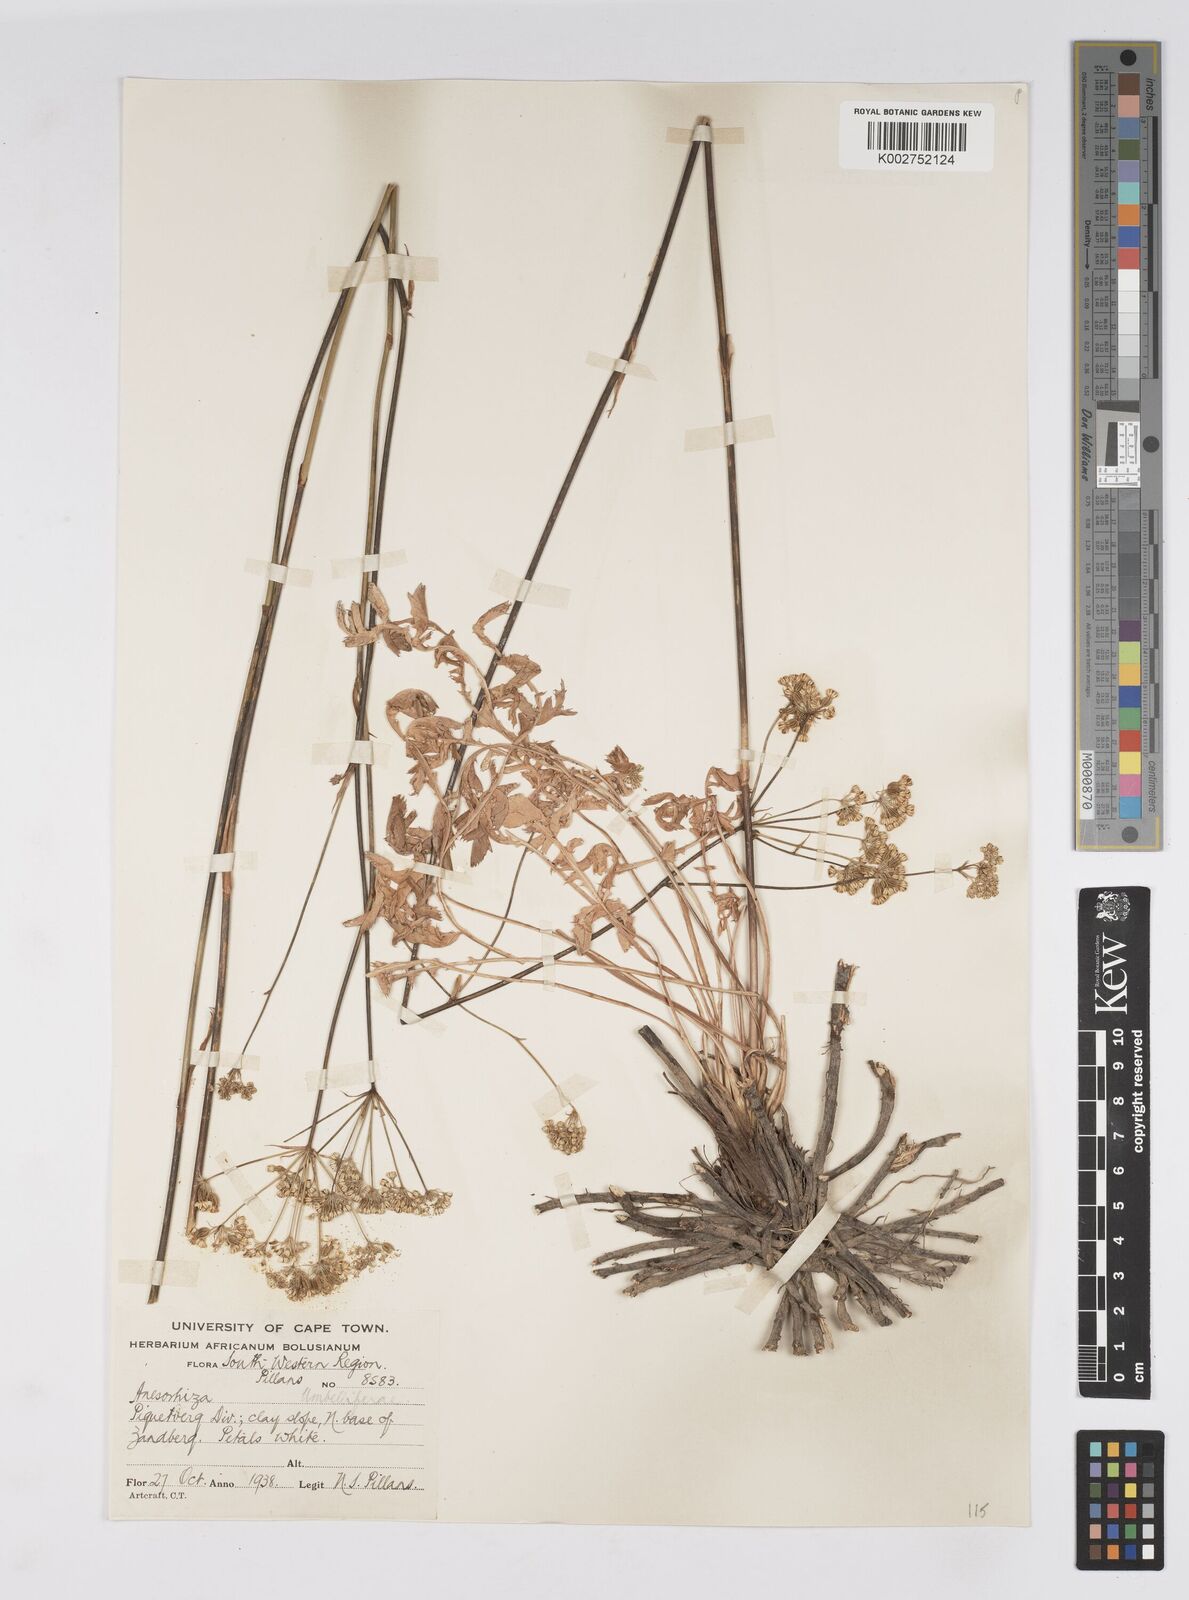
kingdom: Plantae
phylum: Tracheophyta
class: Magnoliopsida
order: Apiales
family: Apiaceae
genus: Lichtensteinia
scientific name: Lichtensteinia obscura
